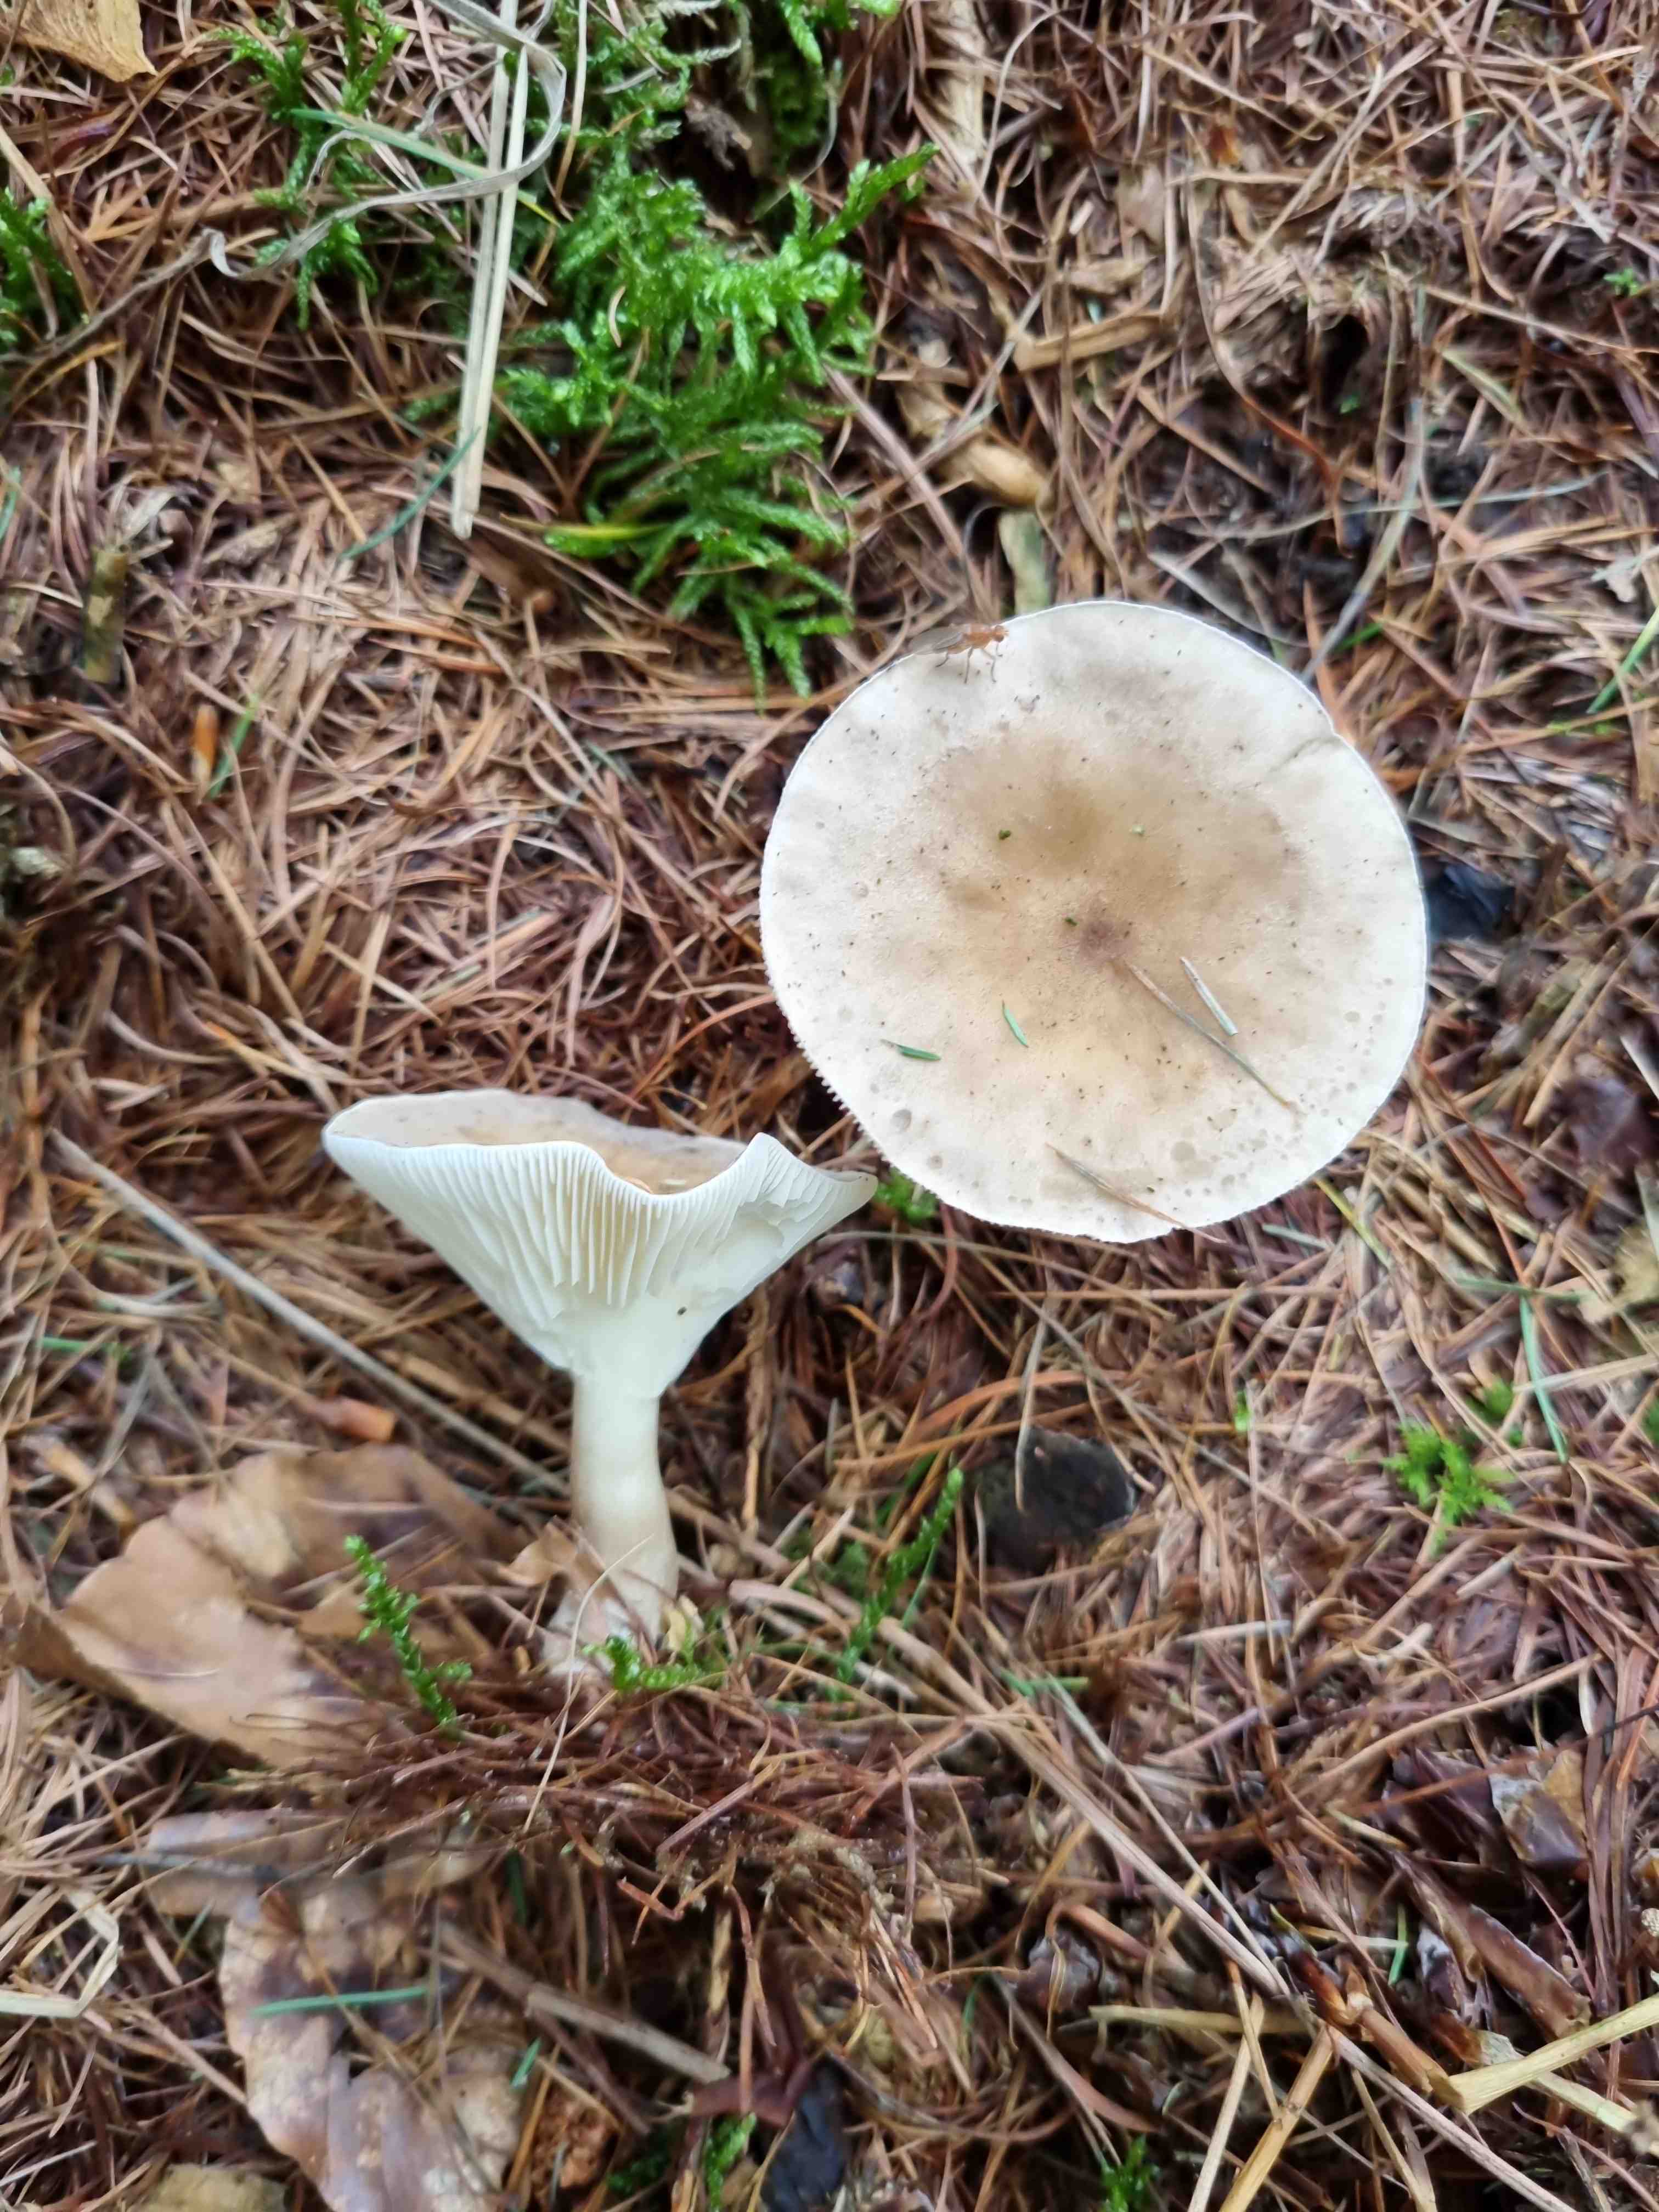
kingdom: Fungi
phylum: Basidiomycota
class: Agaricomycetes
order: Agaricales
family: Hygrophoraceae
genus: Ampulloclitocybe
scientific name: Ampulloclitocybe clavipes
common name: køllefod
